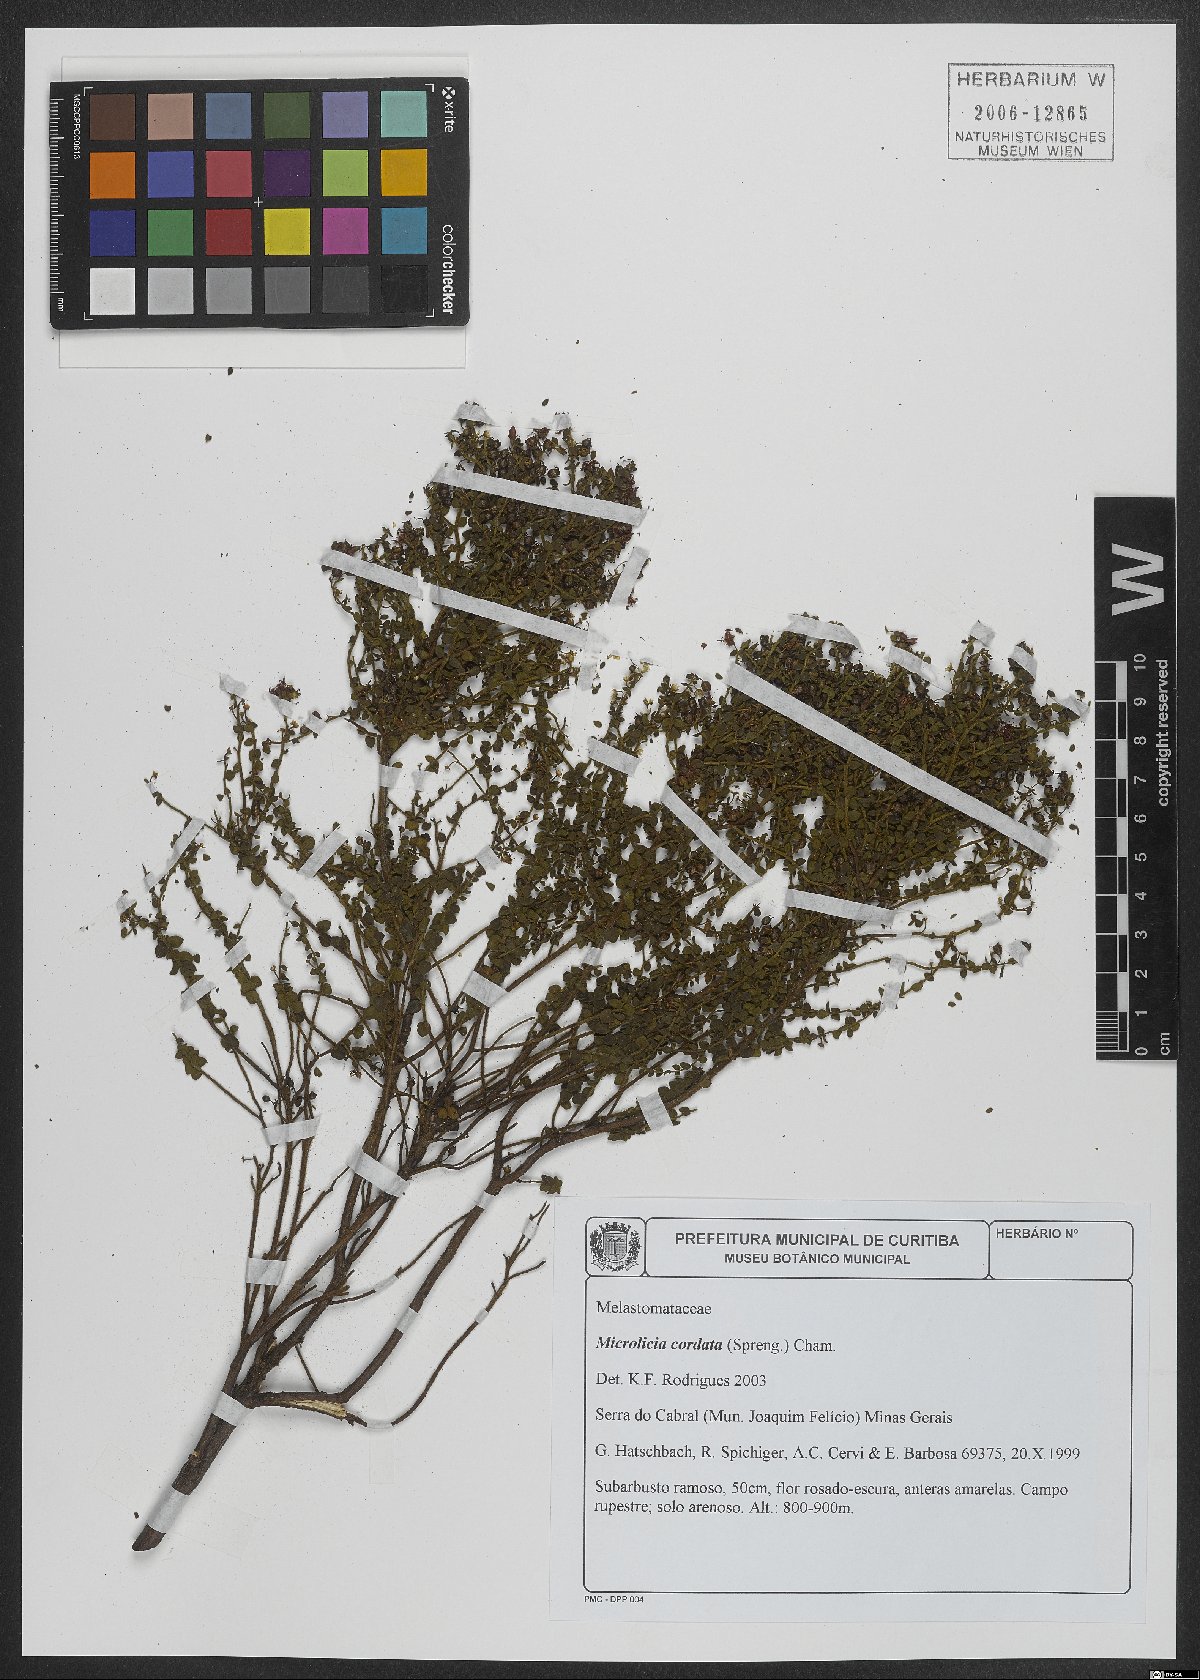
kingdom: Plantae
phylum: Tracheophyta
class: Magnoliopsida
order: Myrtales
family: Melastomataceae
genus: Microlicia
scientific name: Microlicia cordata
